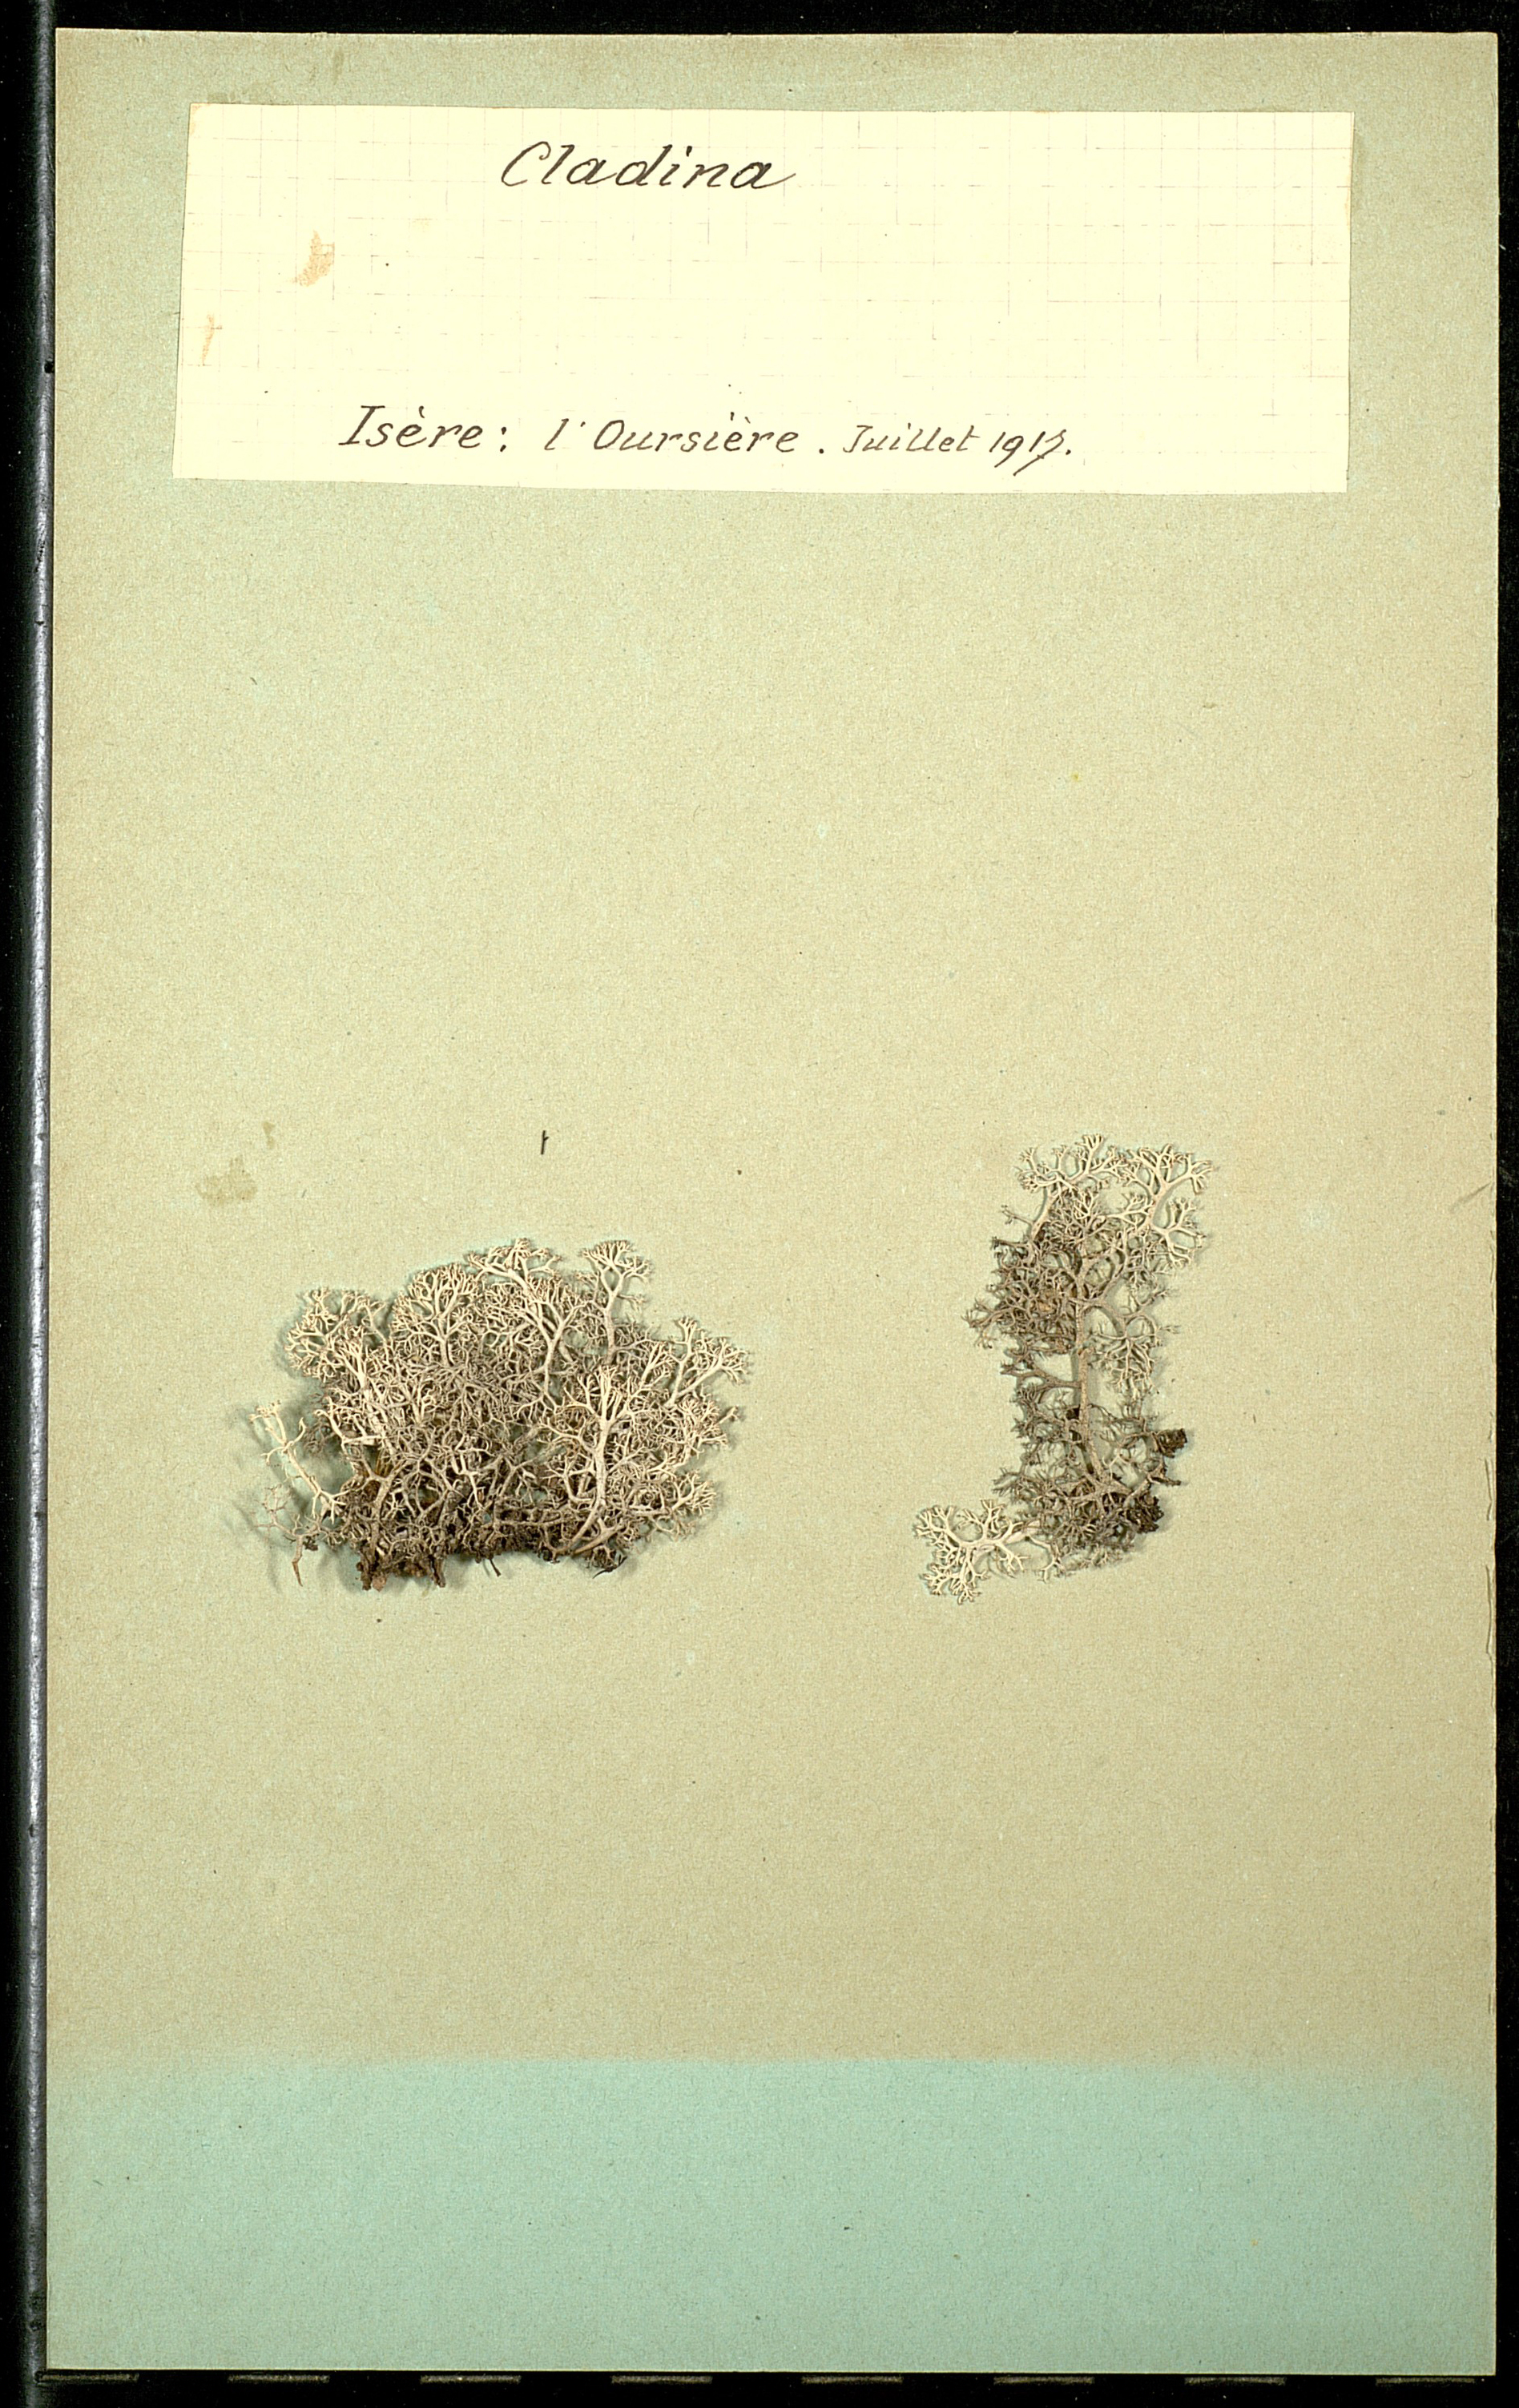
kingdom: Fungi
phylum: Ascomycota
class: Lecanoromycetes
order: Lecanorales
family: Cladoniaceae
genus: Cladonia
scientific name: Cladonia
